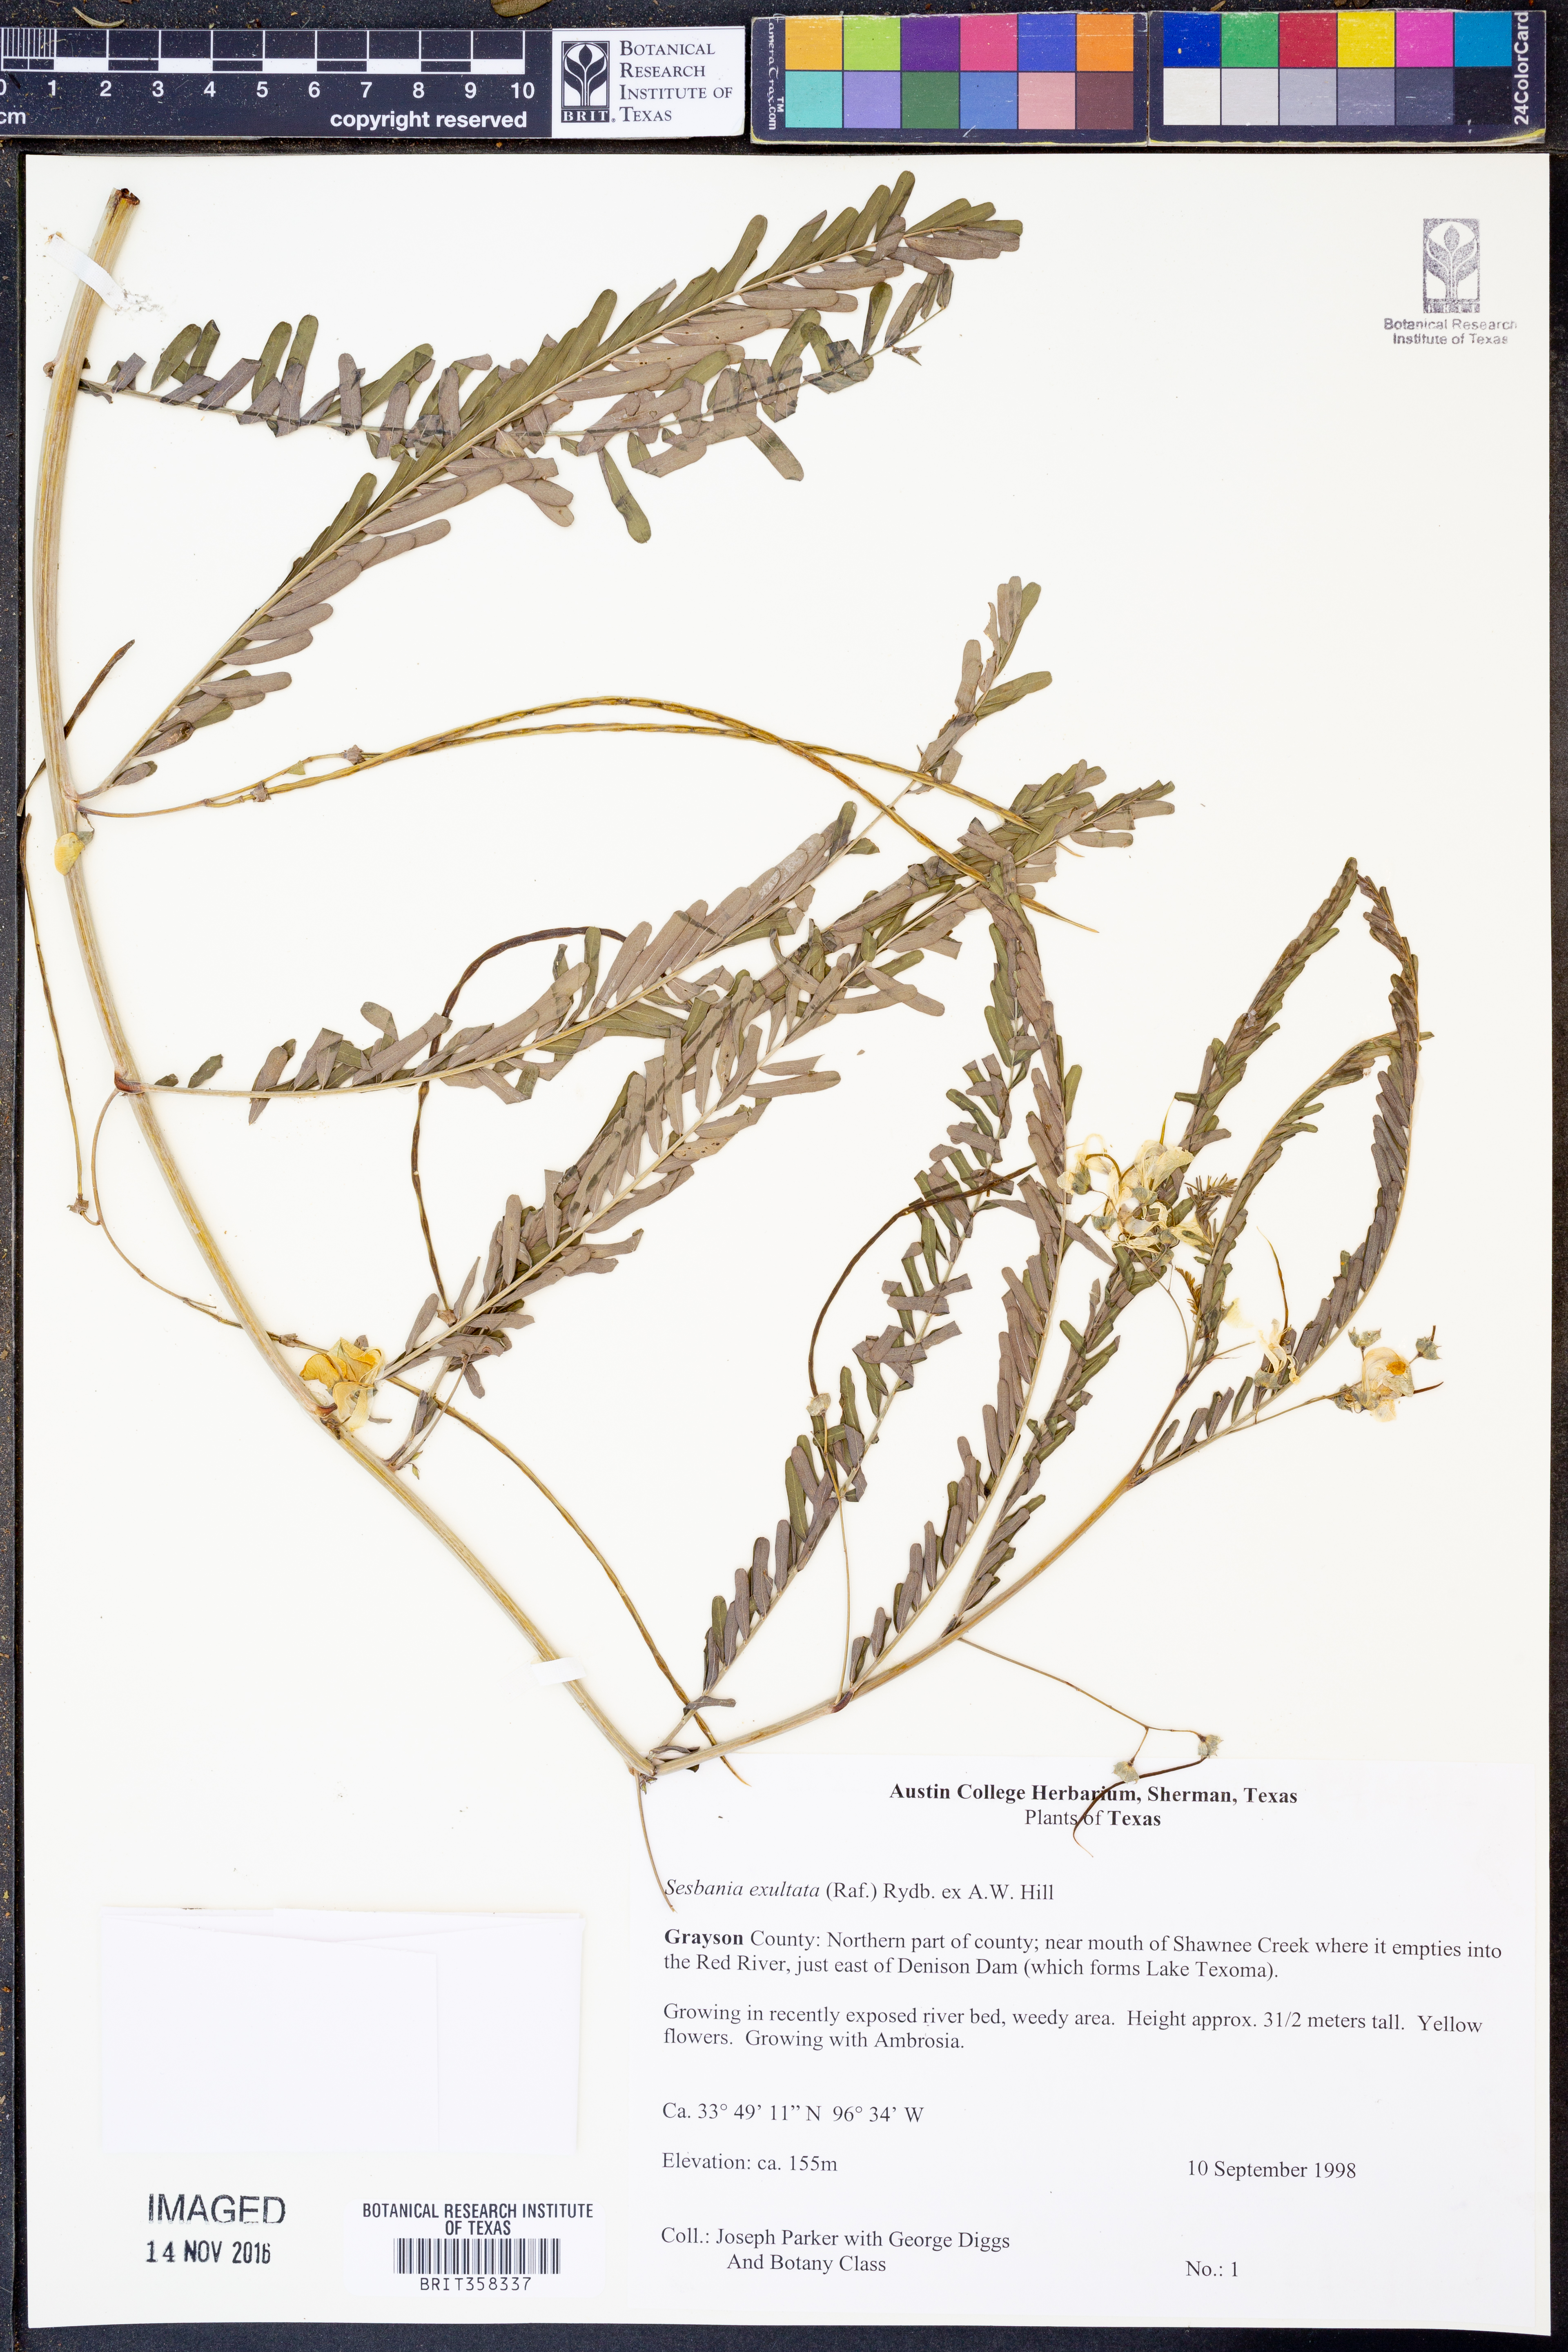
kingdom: Plantae
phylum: Tracheophyta
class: Magnoliopsida
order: Fabales
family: Fabaceae
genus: Sesbania
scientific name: Sesbania herbacea
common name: Bigpod sesbania
